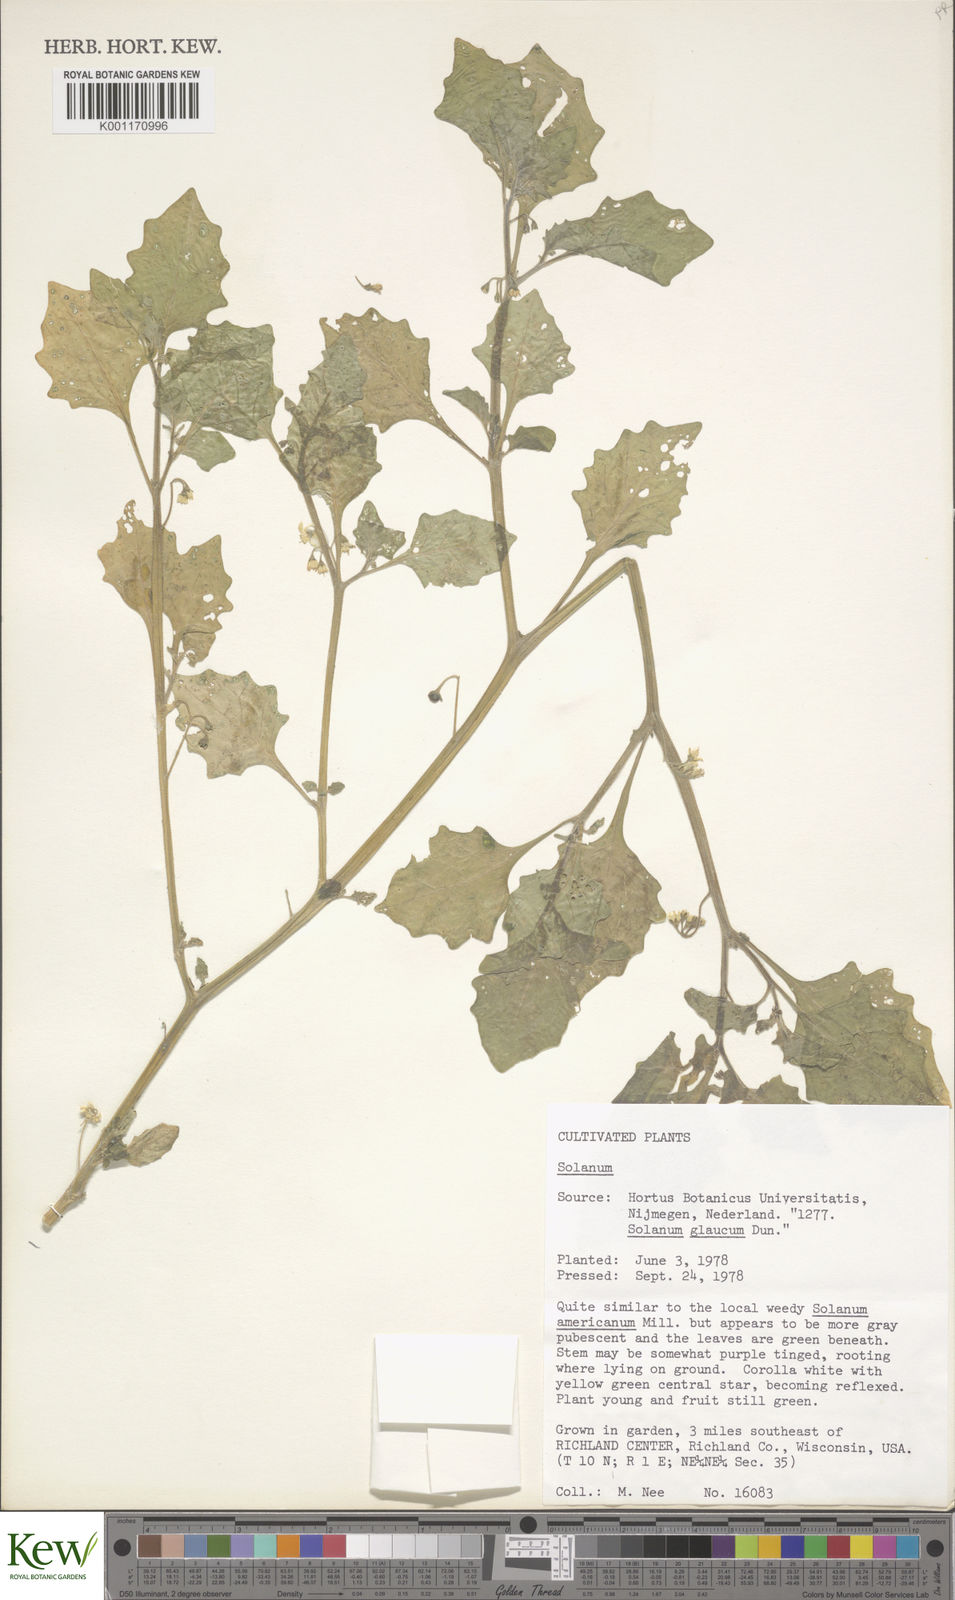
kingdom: Plantae
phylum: Tracheophyta
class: Magnoliopsida
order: Solanales
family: Solanaceae
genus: Solanum
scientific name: Solanum
